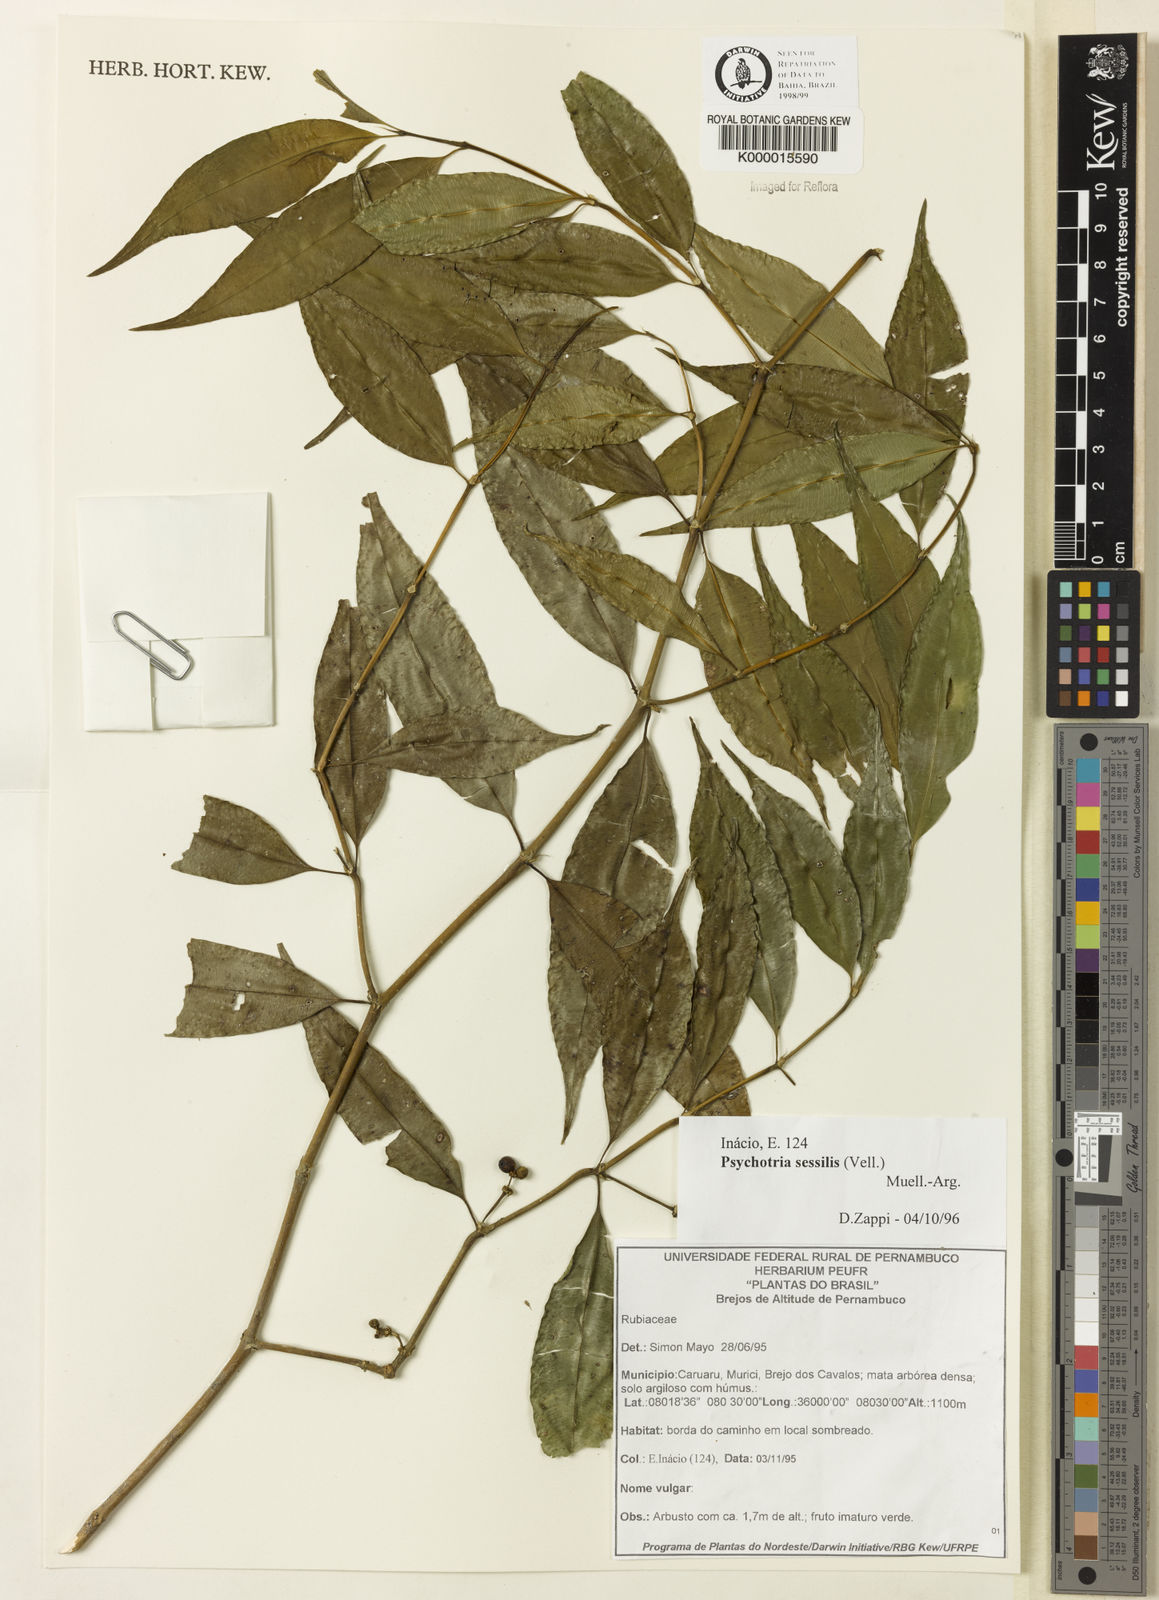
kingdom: Plantae
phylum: Tracheophyta
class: Magnoliopsida
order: Gentianales
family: Rubiaceae
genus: Psychotria
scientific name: Psychotria
